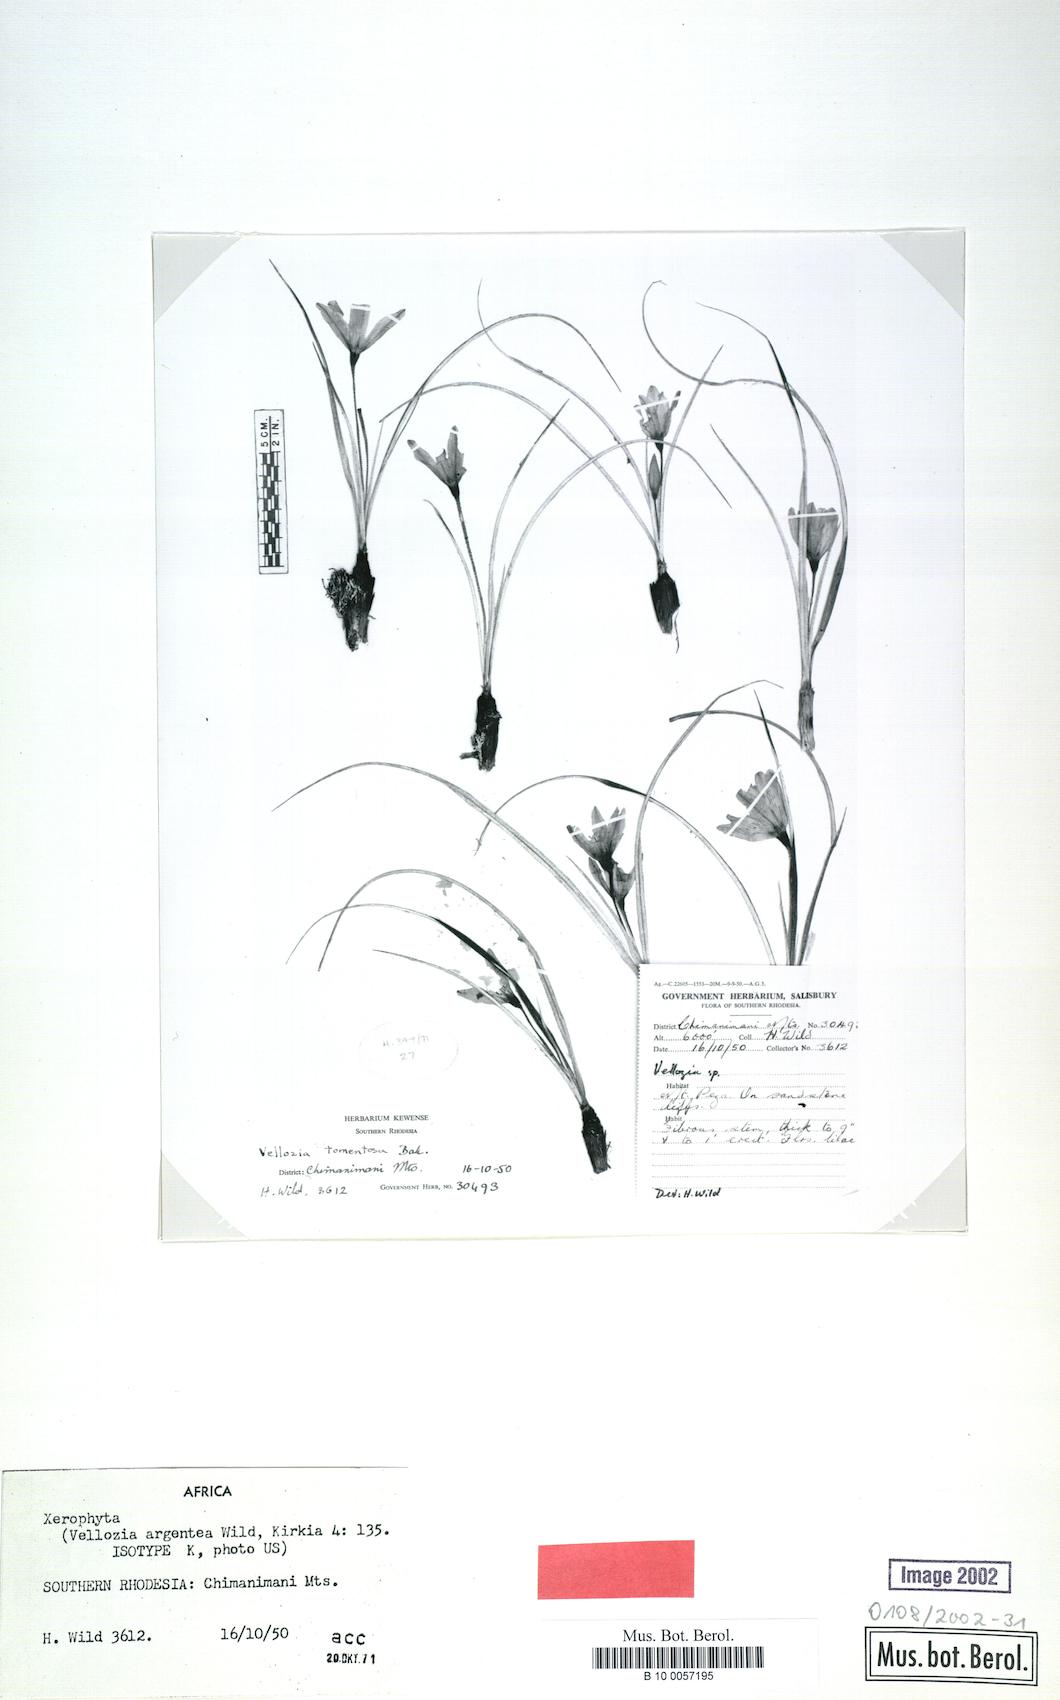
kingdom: Plantae
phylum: Tracheophyta
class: Liliopsida
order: Pandanales
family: Velloziaceae
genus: Xerophyta
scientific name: Xerophyta argentea
